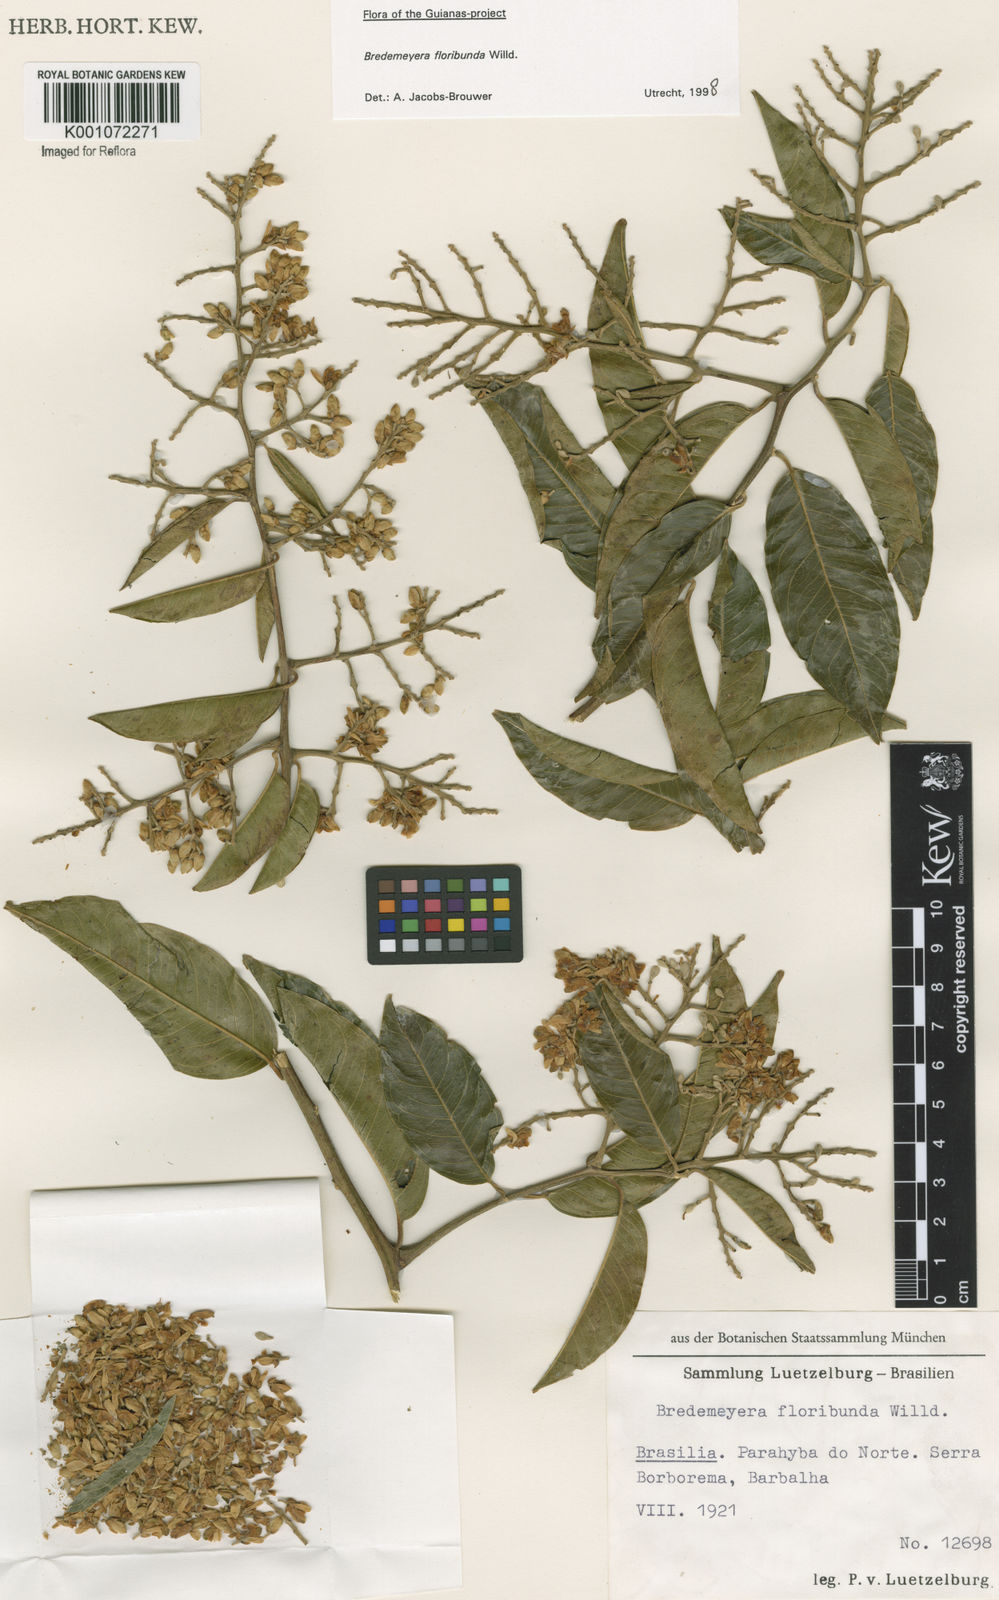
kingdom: Plantae
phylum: Tracheophyta
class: Magnoliopsida
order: Fabales
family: Polygalaceae
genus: Bredemeyera
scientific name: Bredemeyera floribunda
